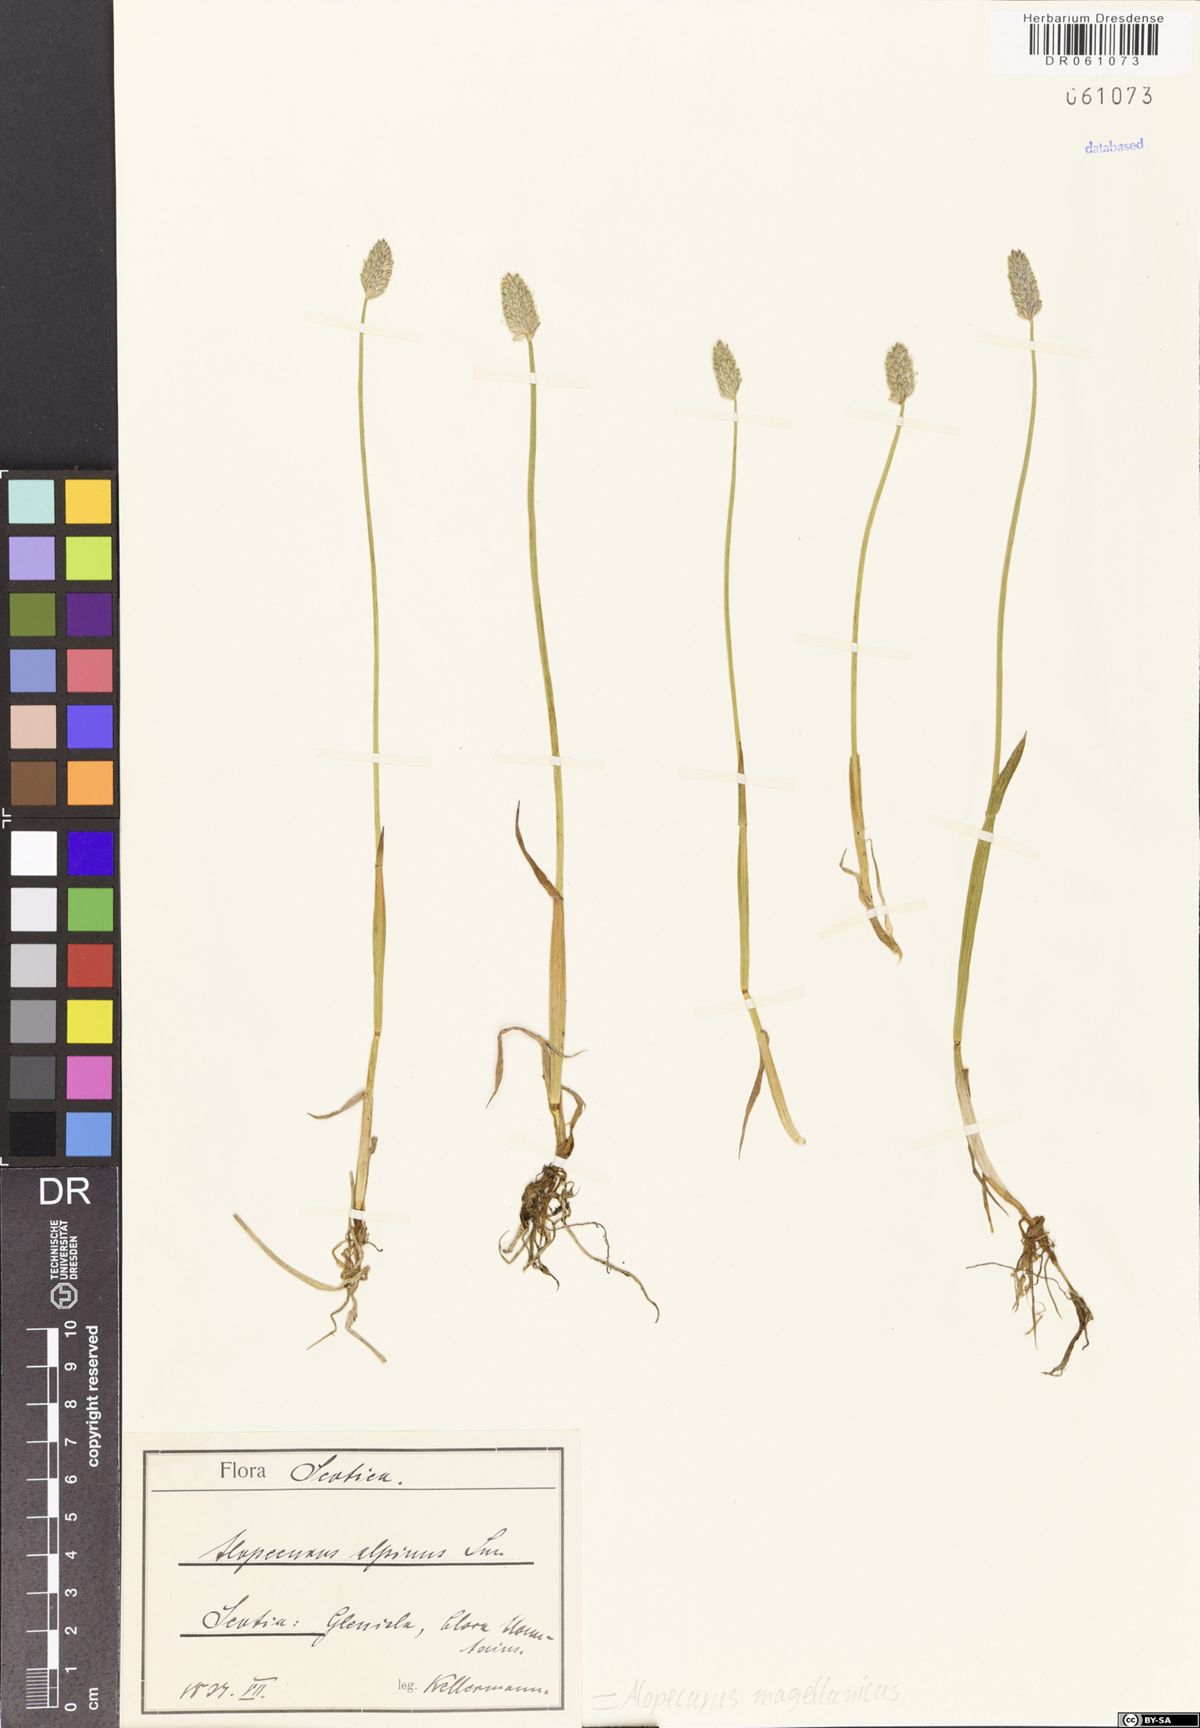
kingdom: Plantae
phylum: Tracheophyta
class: Liliopsida
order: Poales
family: Poaceae
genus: Alopecurus
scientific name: Alopecurus magellanicus
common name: Alpine foxtail
